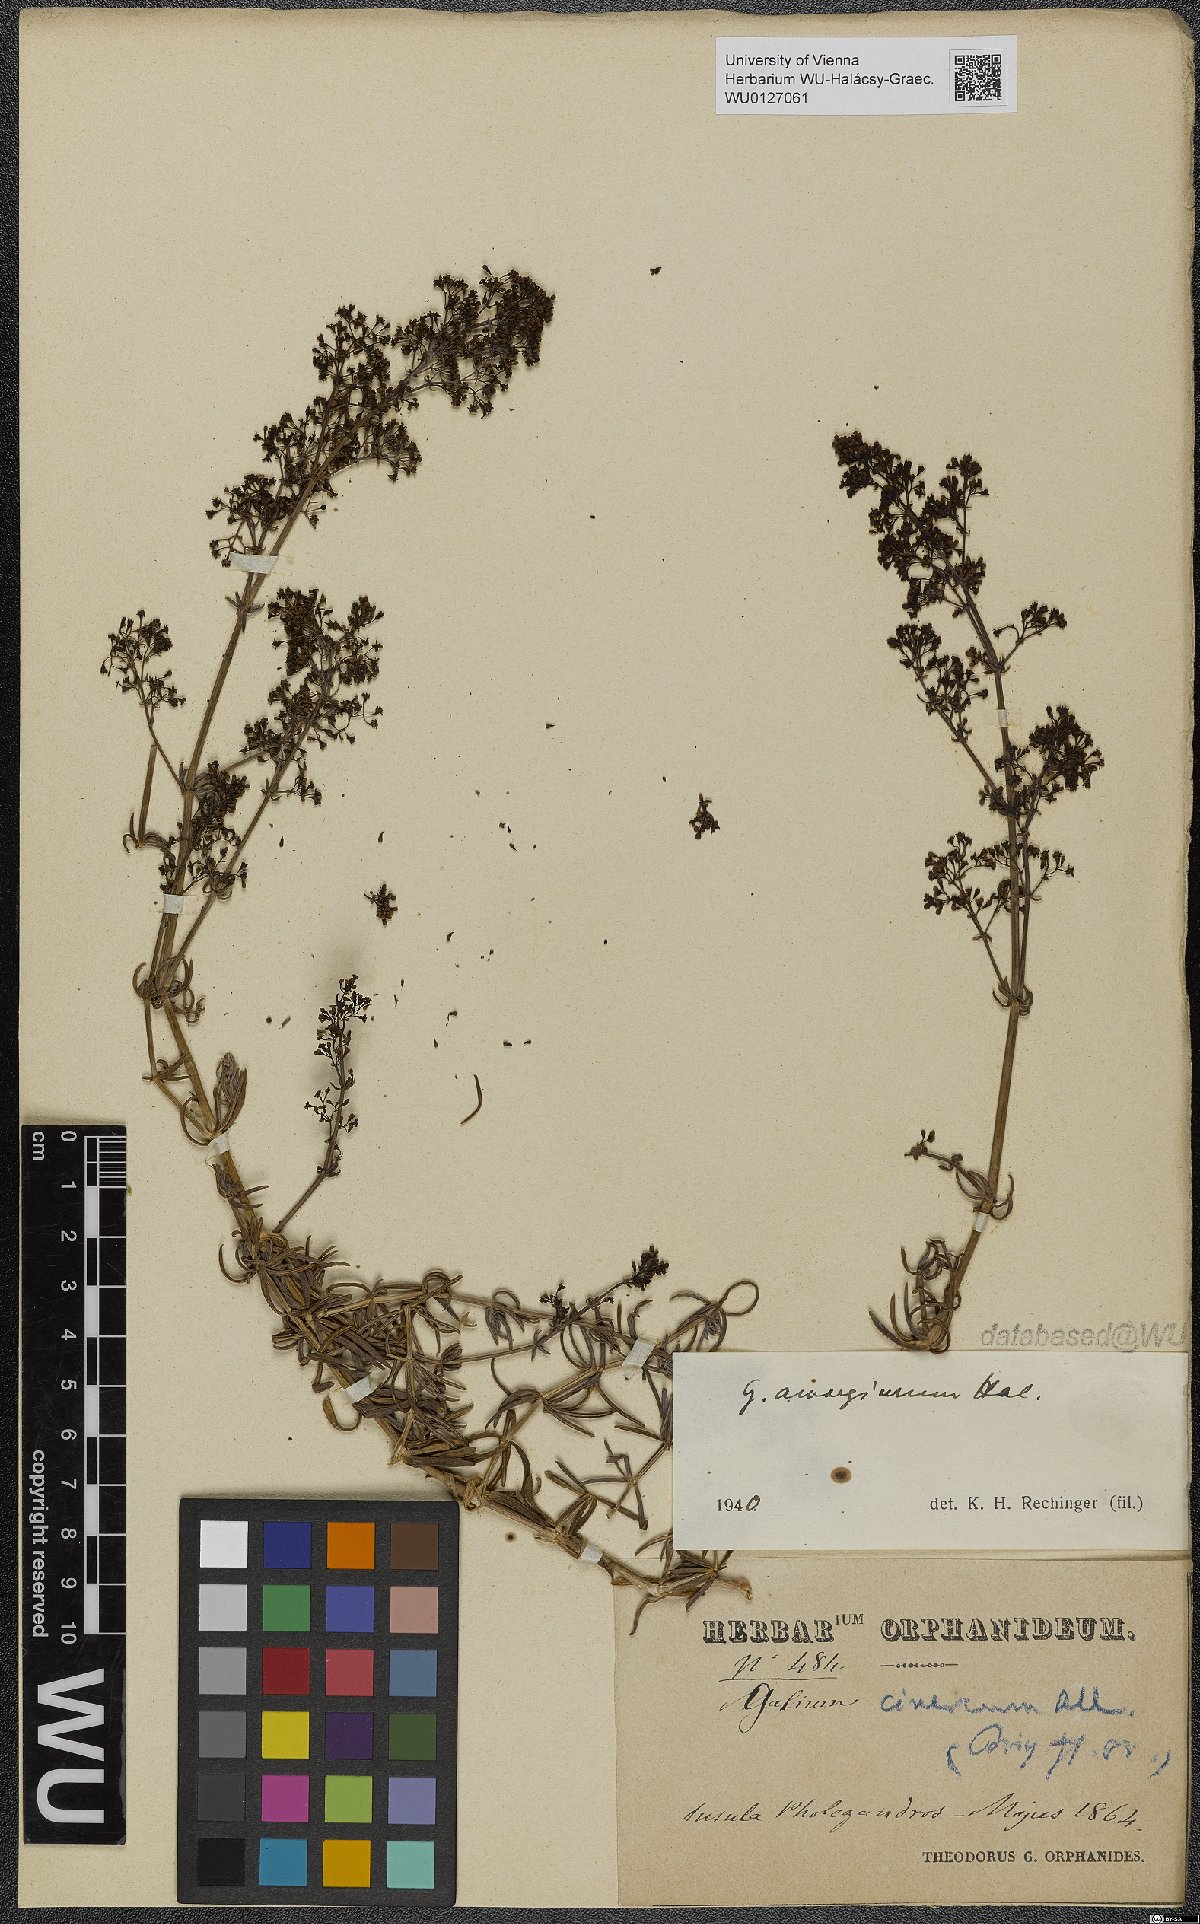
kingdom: Plantae
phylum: Tracheophyta
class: Magnoliopsida
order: Gentianales
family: Rubiaceae
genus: Galium
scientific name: Galium amorginum
